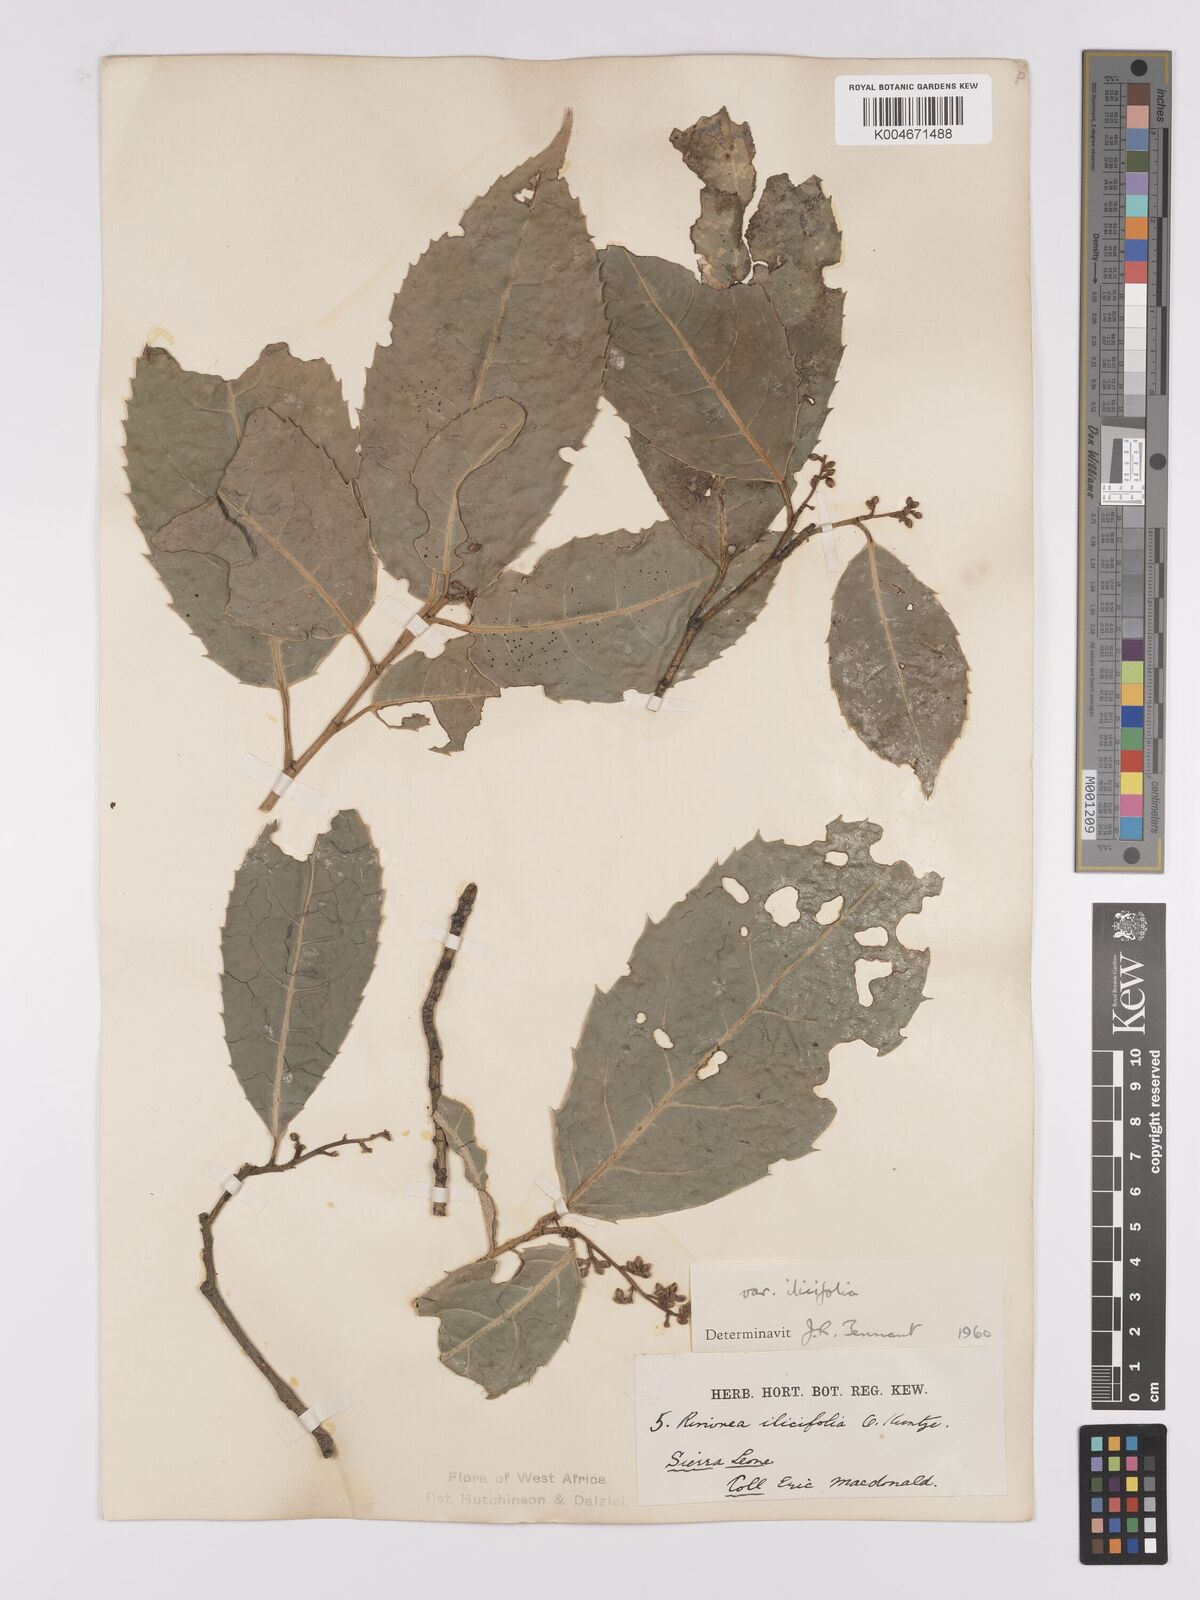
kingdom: Plantae
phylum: Tracheophyta
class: Magnoliopsida
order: Malpighiales
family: Violaceae
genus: Rinorea
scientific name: Rinorea ilicifolia
